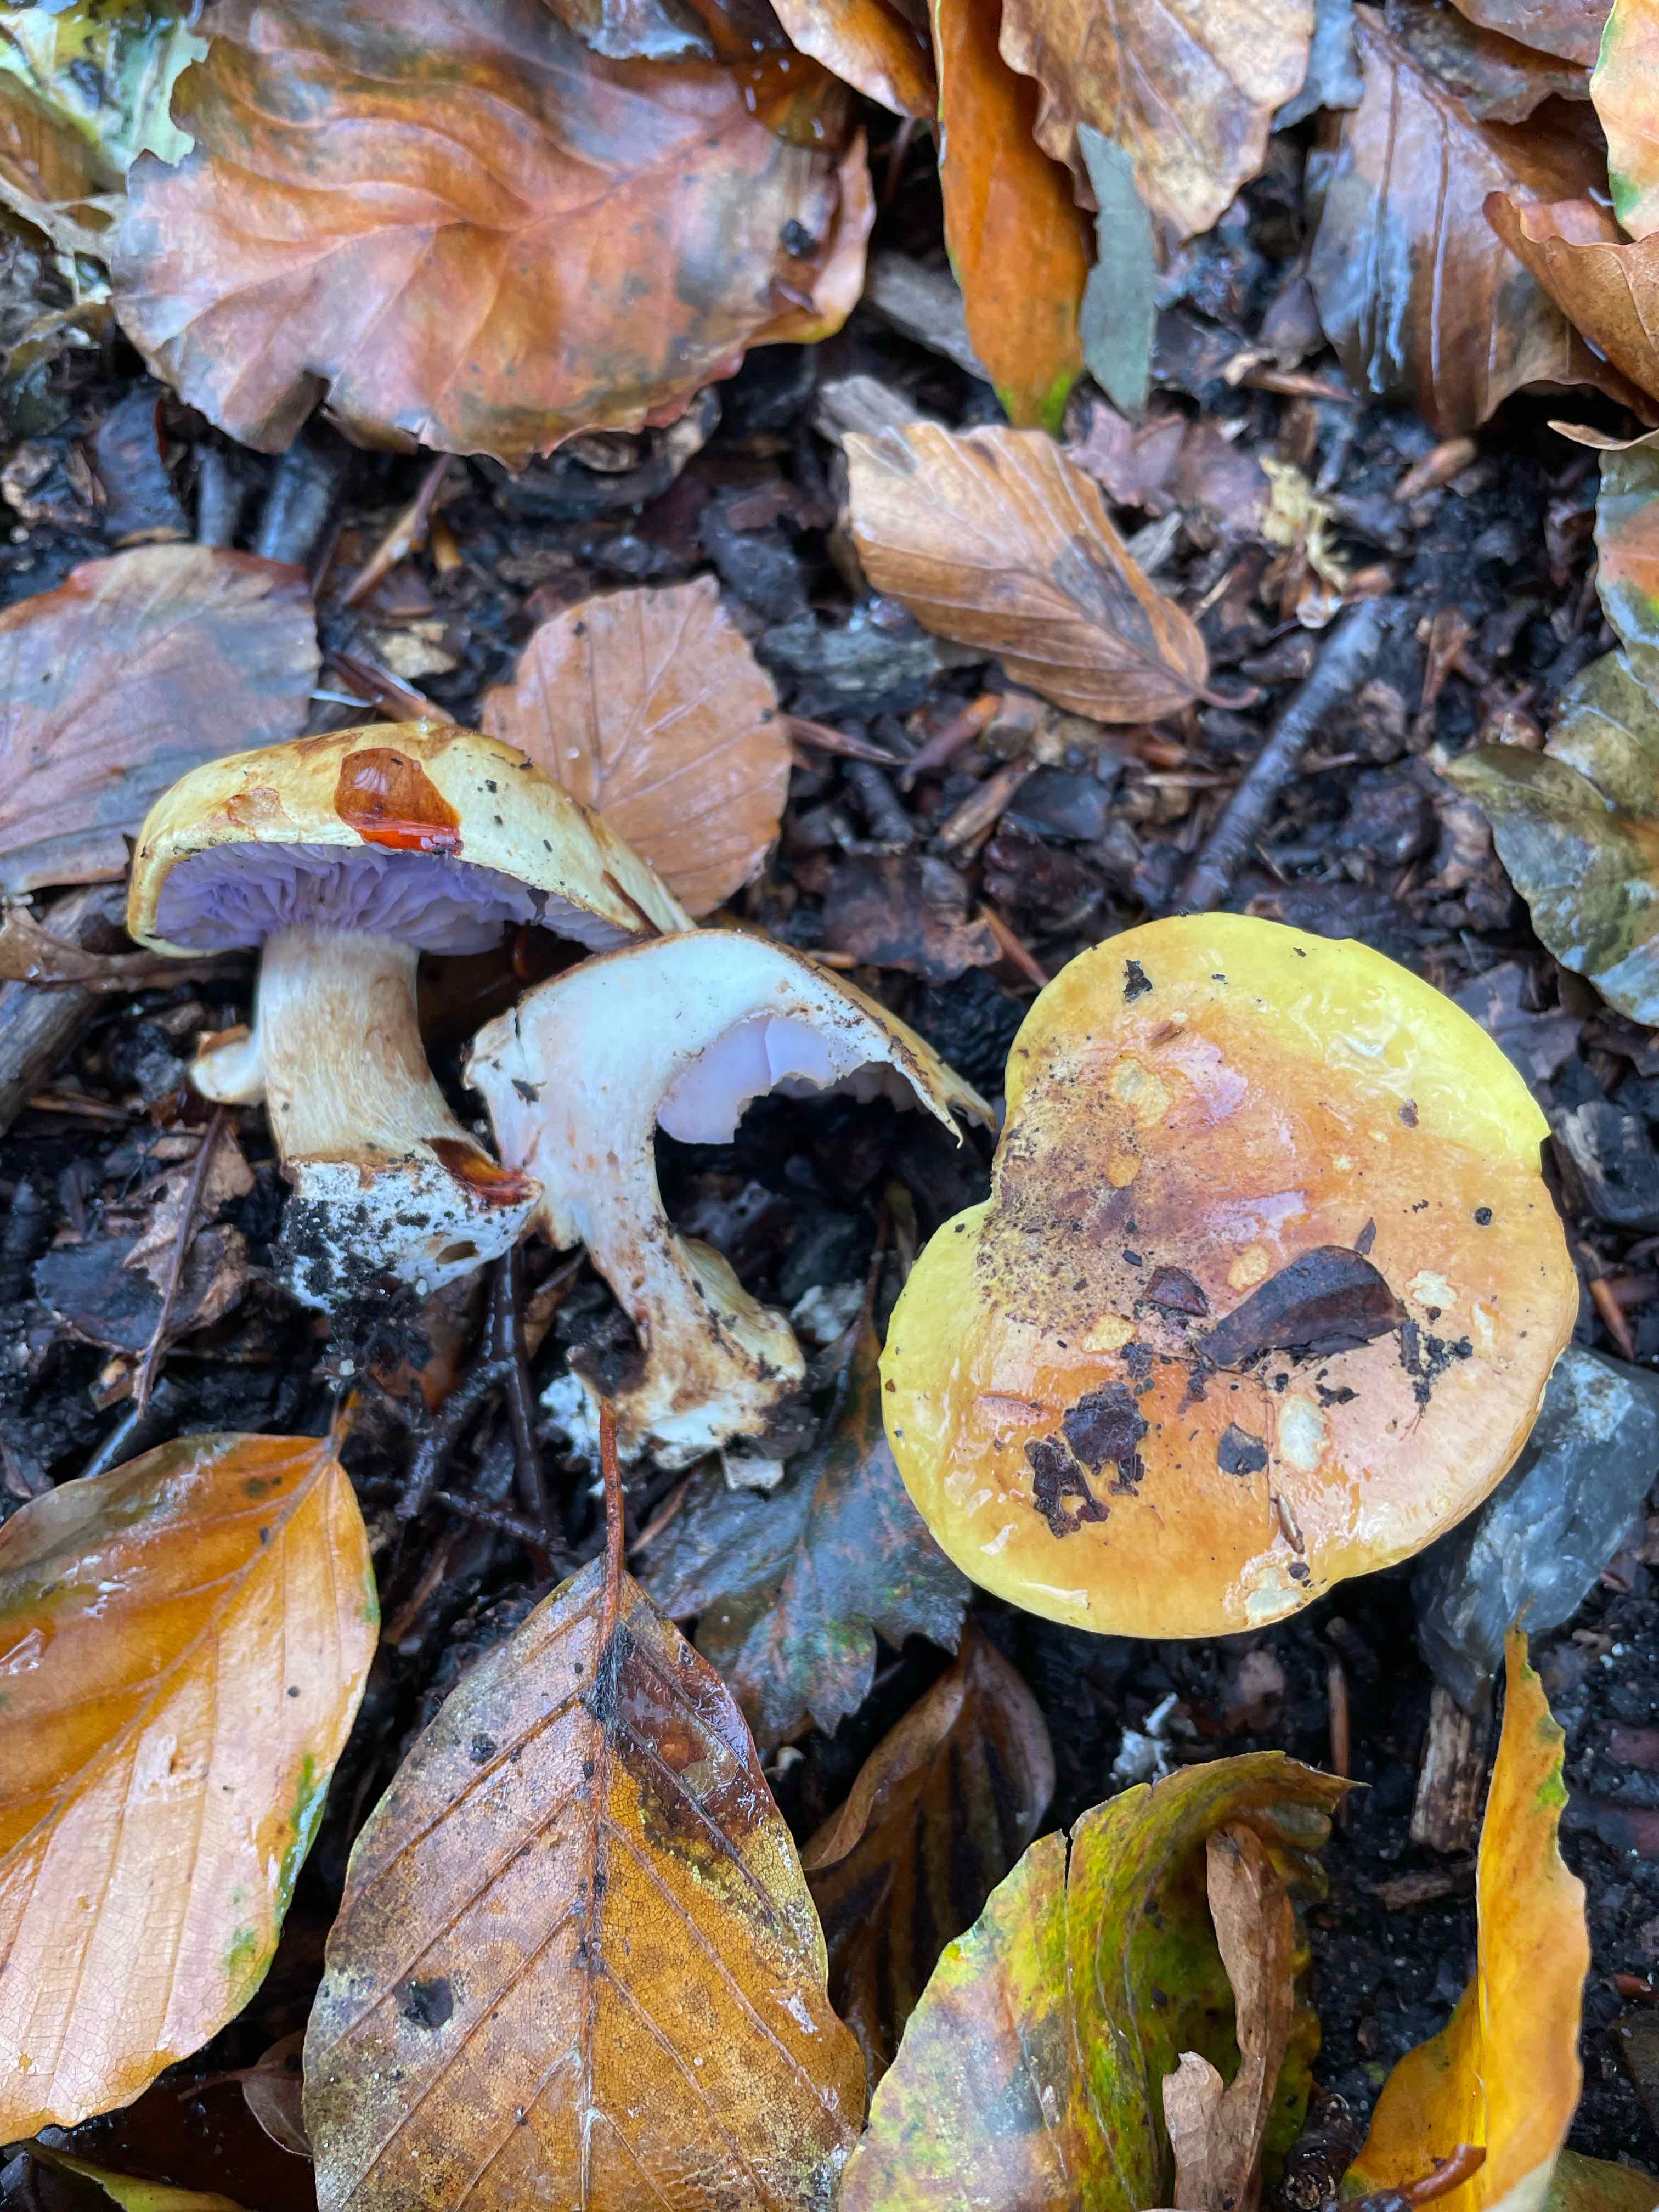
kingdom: Fungi
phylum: Basidiomycota
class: Agaricomycetes
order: Agaricales
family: Cortinariaceae
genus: Calonarius
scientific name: Calonarius catharinae
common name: Katrines slørhat
